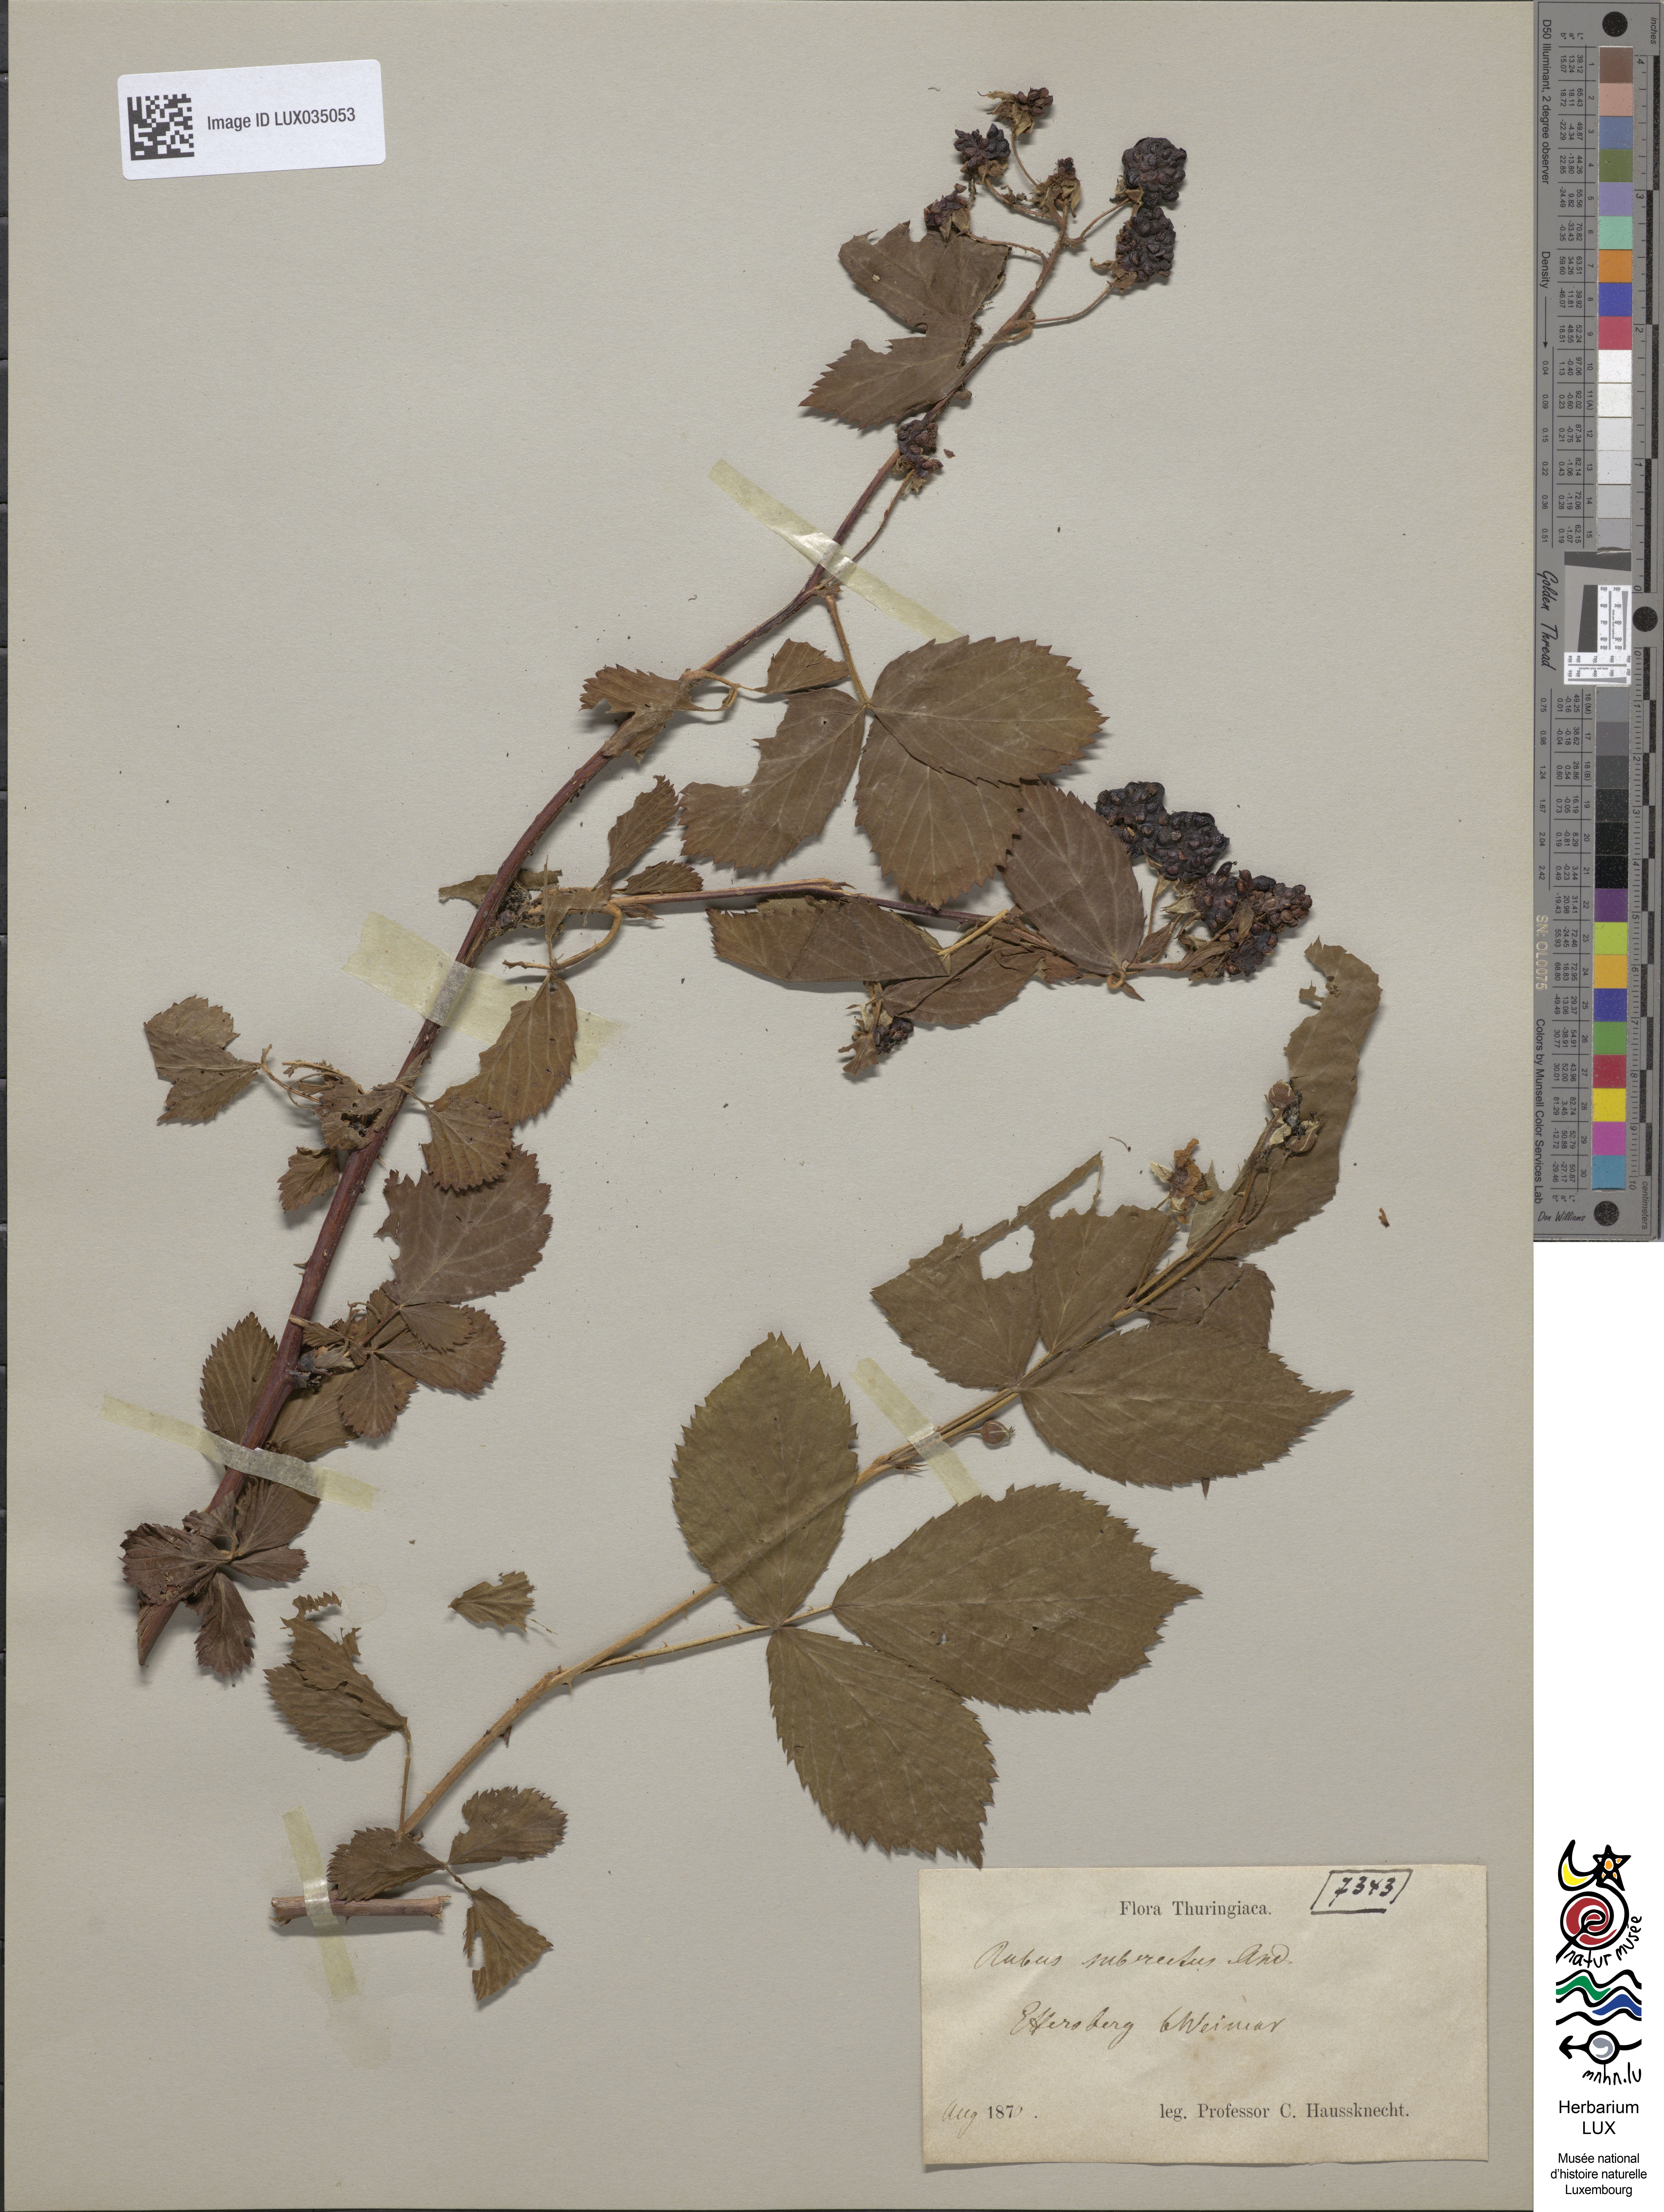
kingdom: Plantae
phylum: Tracheophyta
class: Magnoliopsida
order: Rosales
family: Rosaceae
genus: Rubus
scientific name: Rubus polonicus
